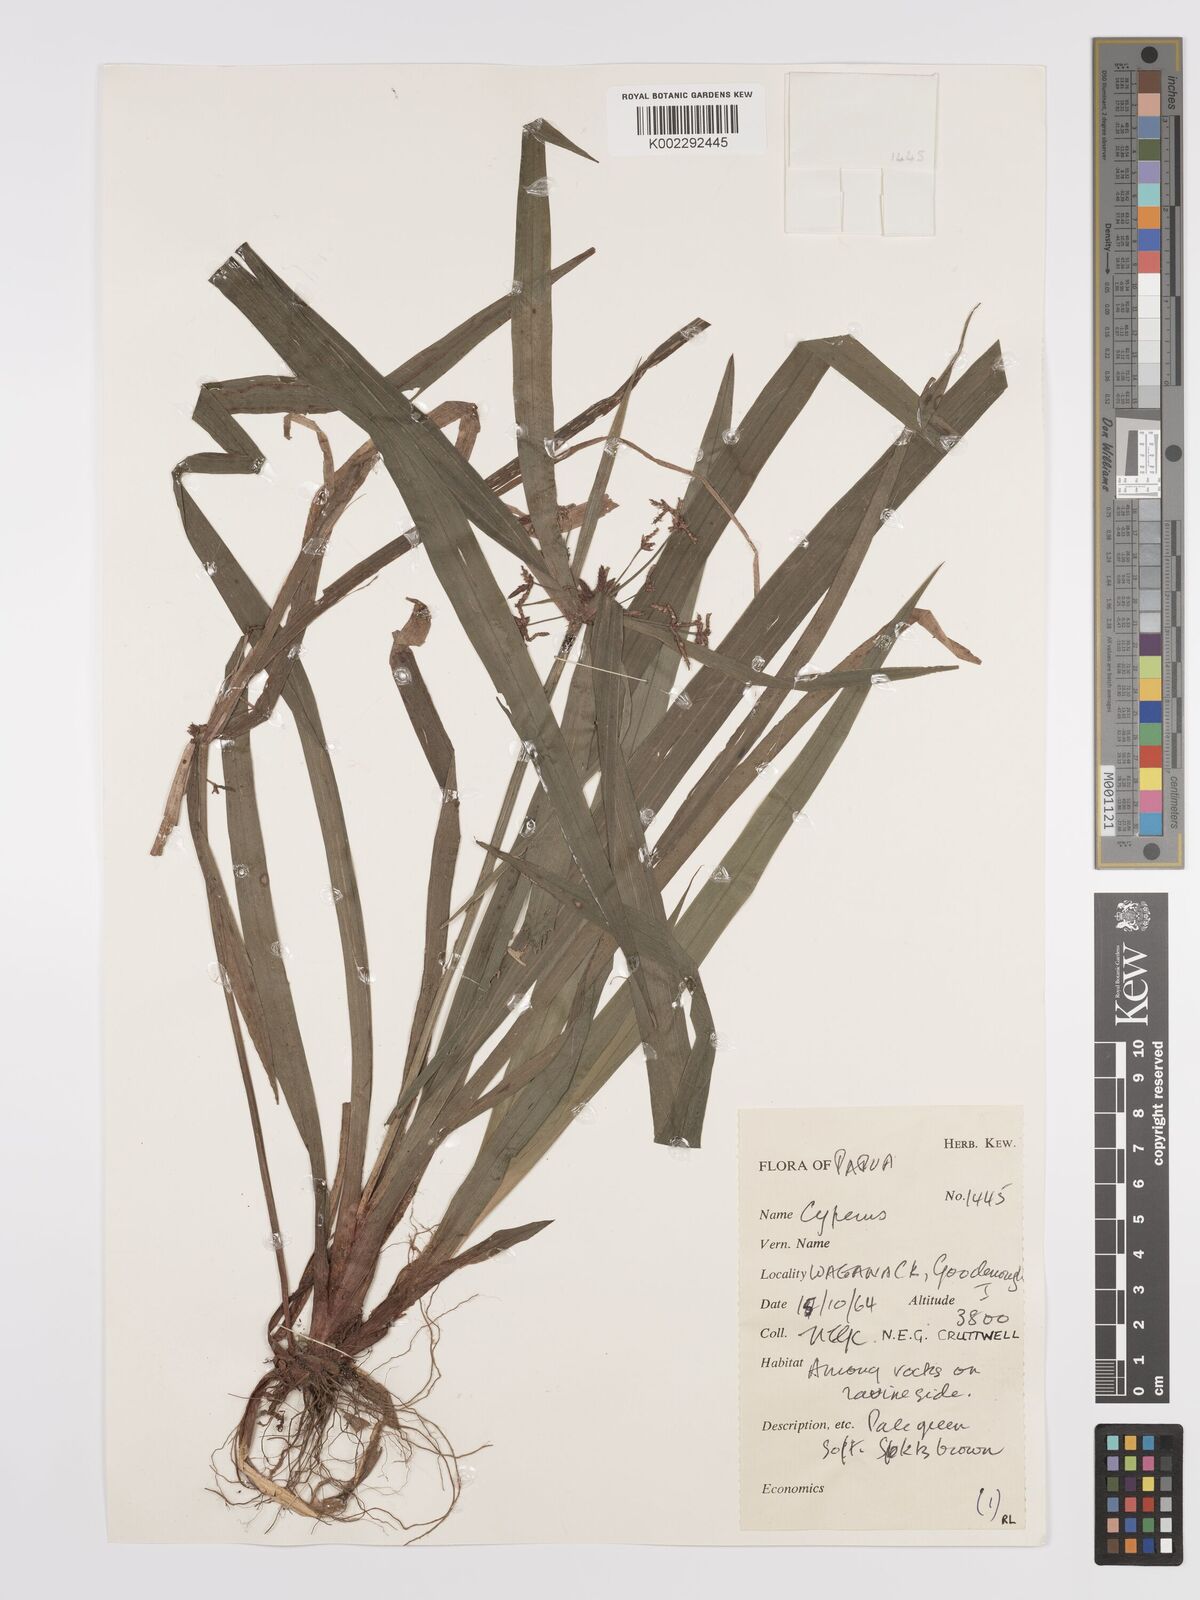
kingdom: Plantae
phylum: Tracheophyta
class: Liliopsida
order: Poales
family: Cyperaceae
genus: Cyperus
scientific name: Cyperus pedunculosus
